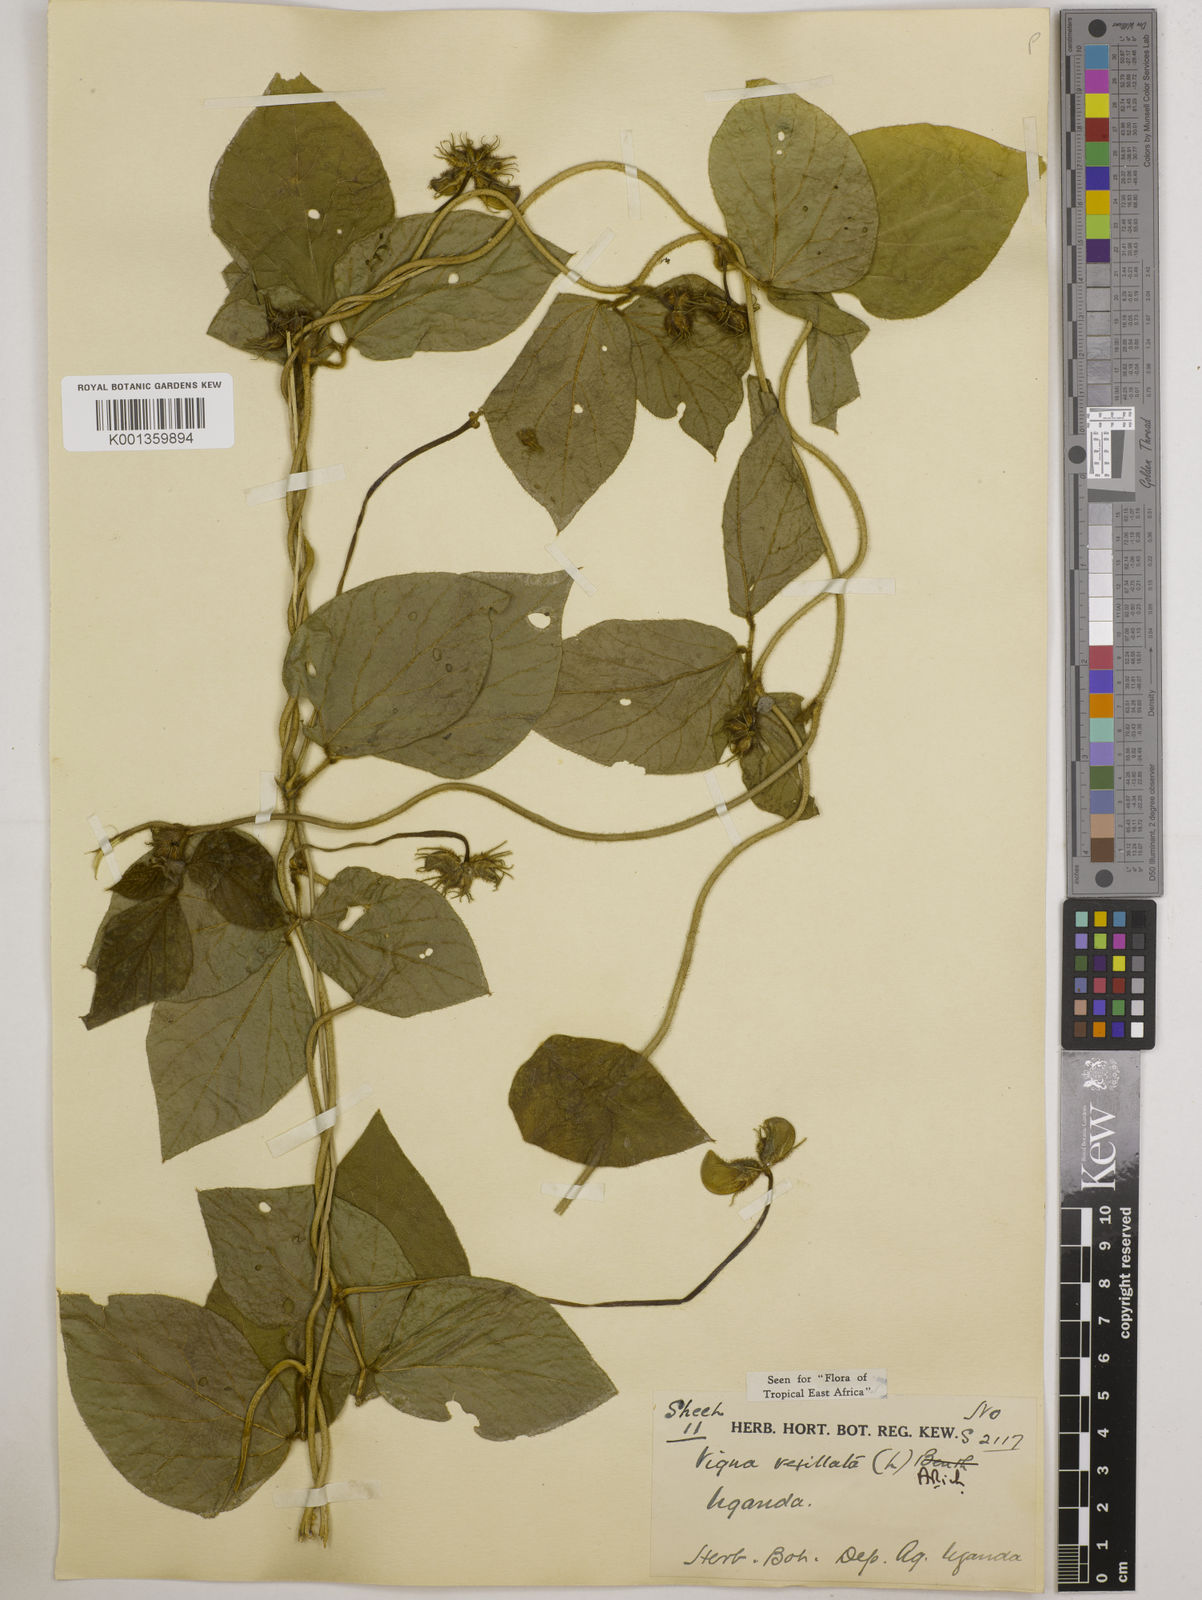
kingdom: Plantae
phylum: Tracheophyta
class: Magnoliopsida
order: Fabales
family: Fabaceae
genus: Vigna
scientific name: Vigna vexillata
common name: Zombi pea
